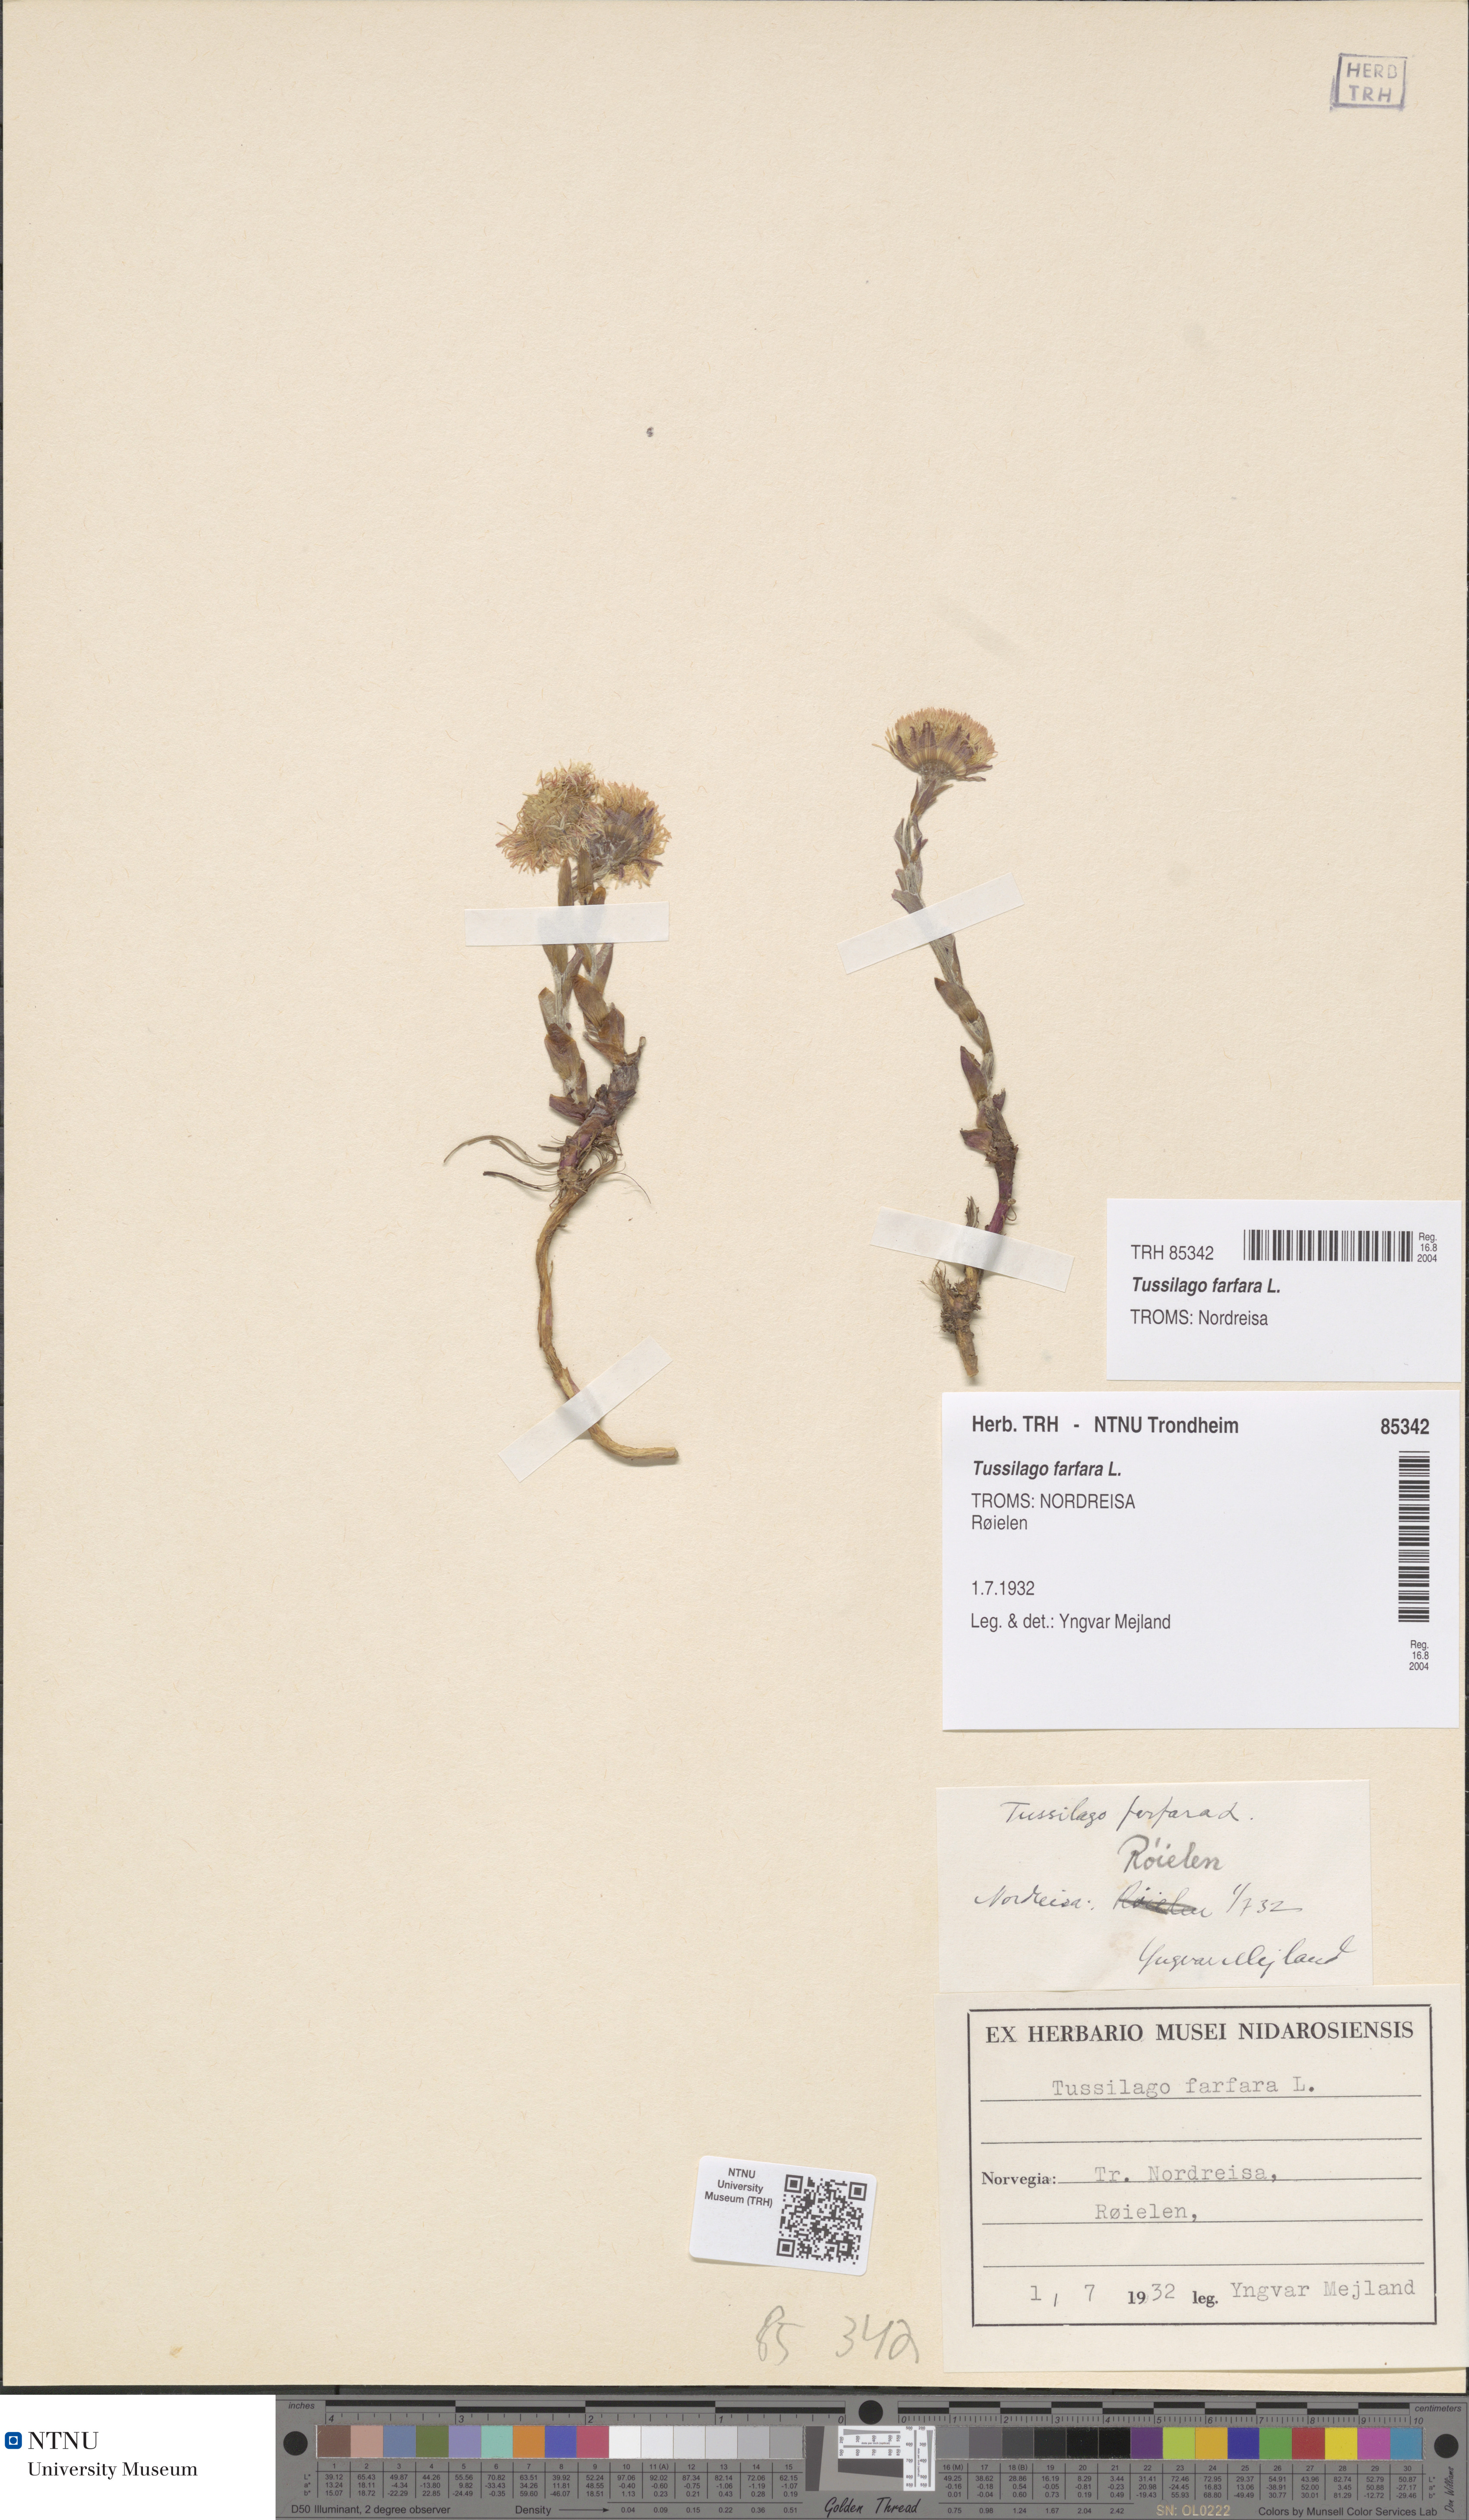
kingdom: Plantae
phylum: Tracheophyta
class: Magnoliopsida
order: Asterales
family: Asteraceae
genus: Tussilago
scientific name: Tussilago farfara
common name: Coltsfoot
